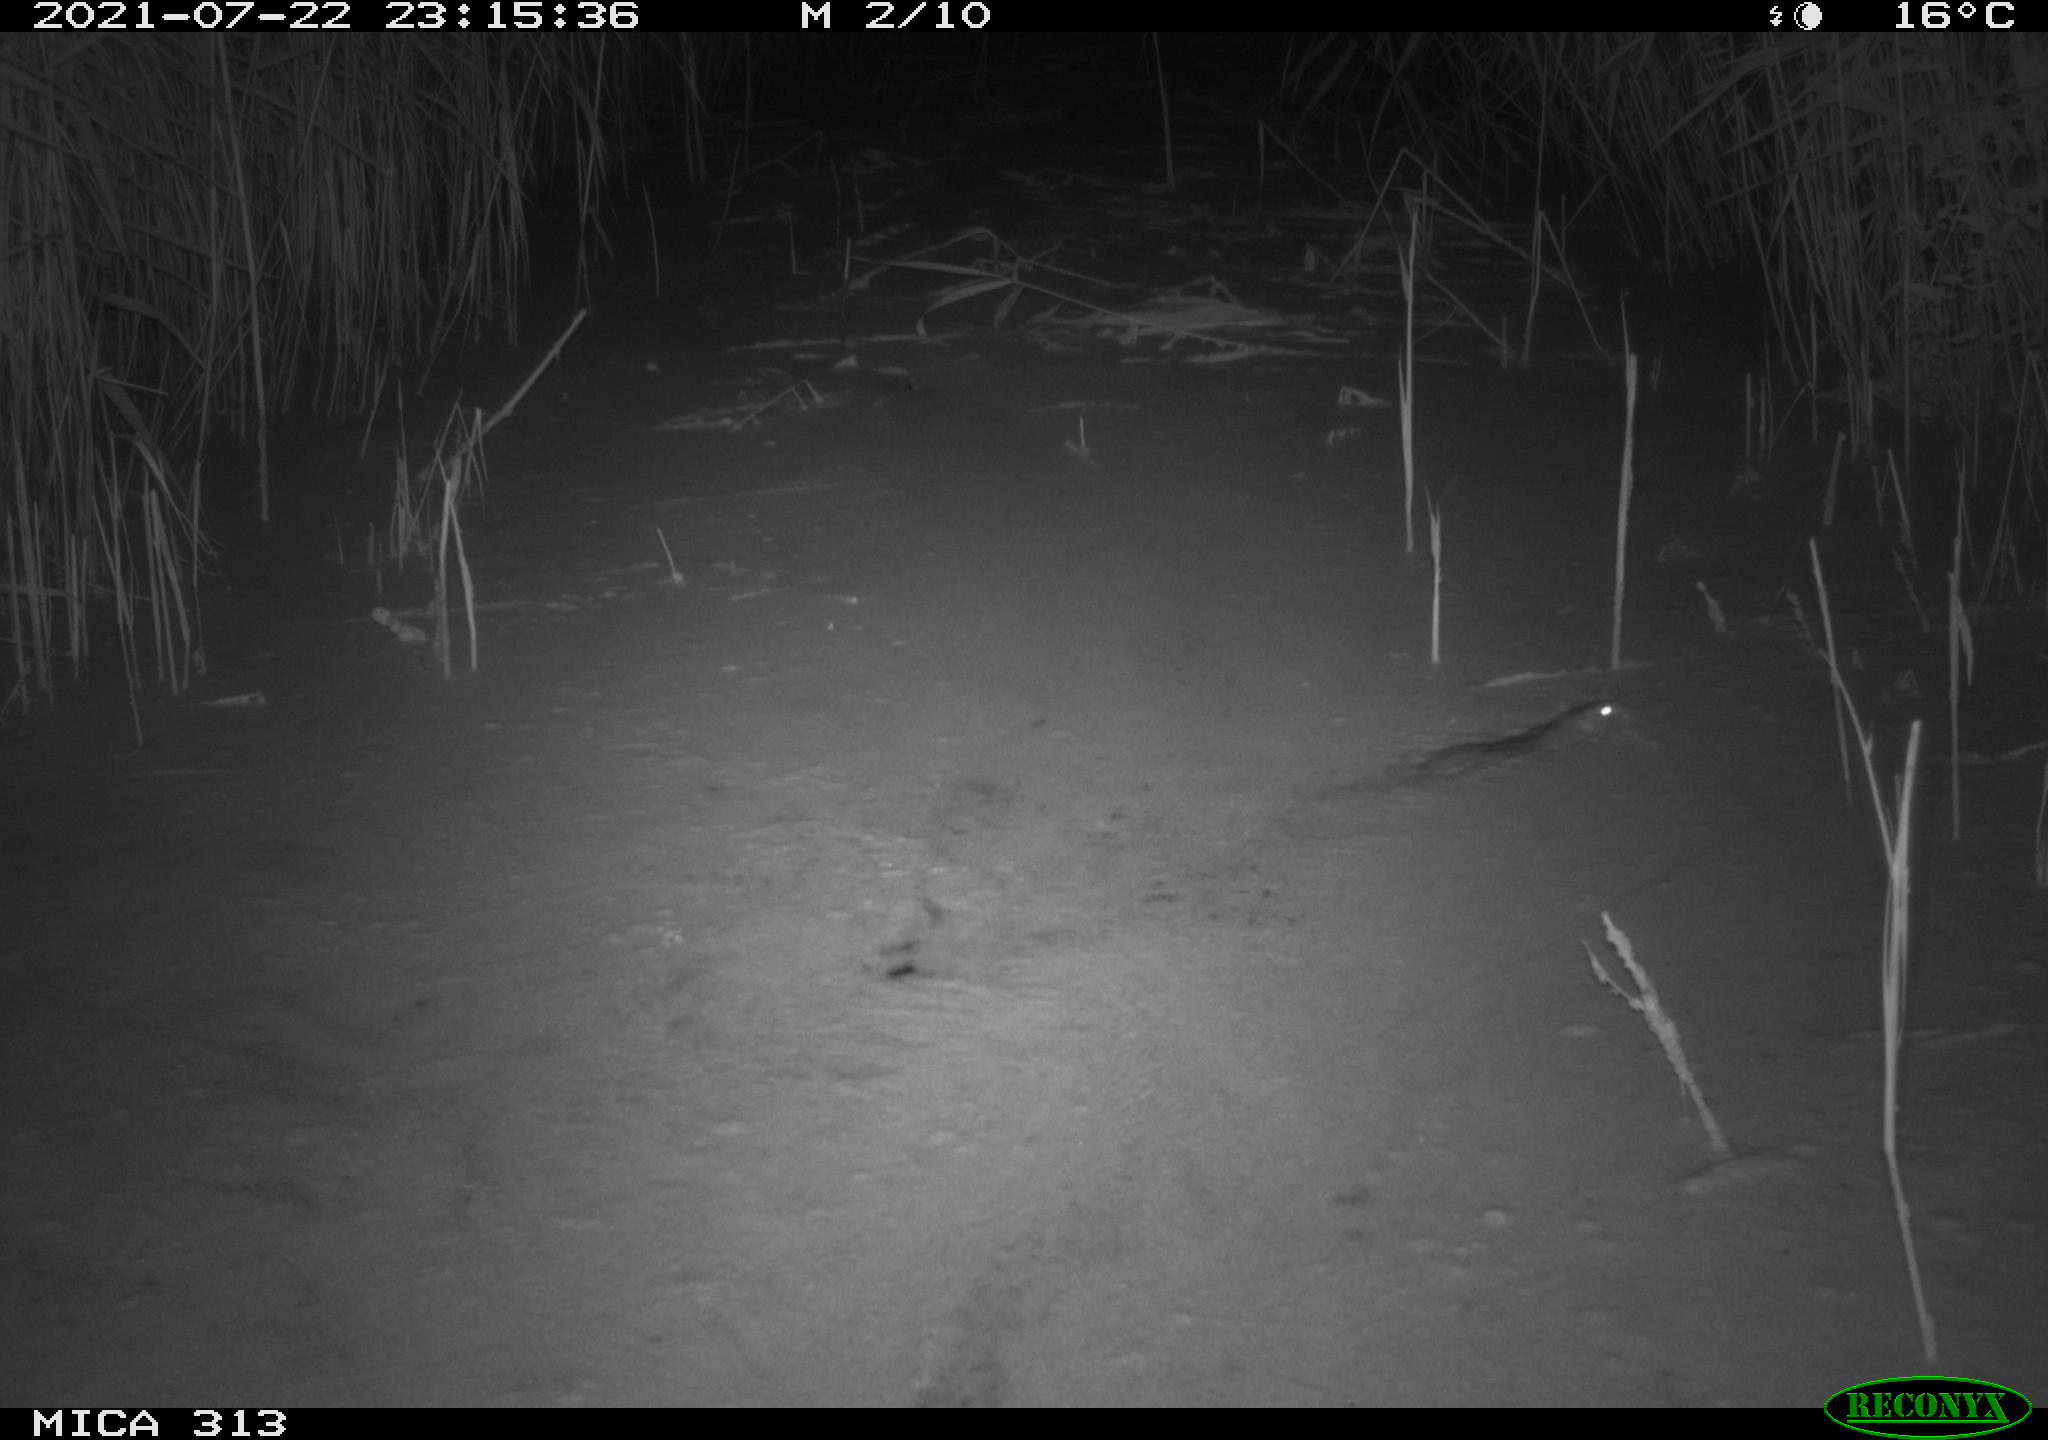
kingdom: Animalia
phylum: Chordata
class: Mammalia
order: Rodentia
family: Muridae
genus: Rattus
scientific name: Rattus norvegicus
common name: Brown rat
